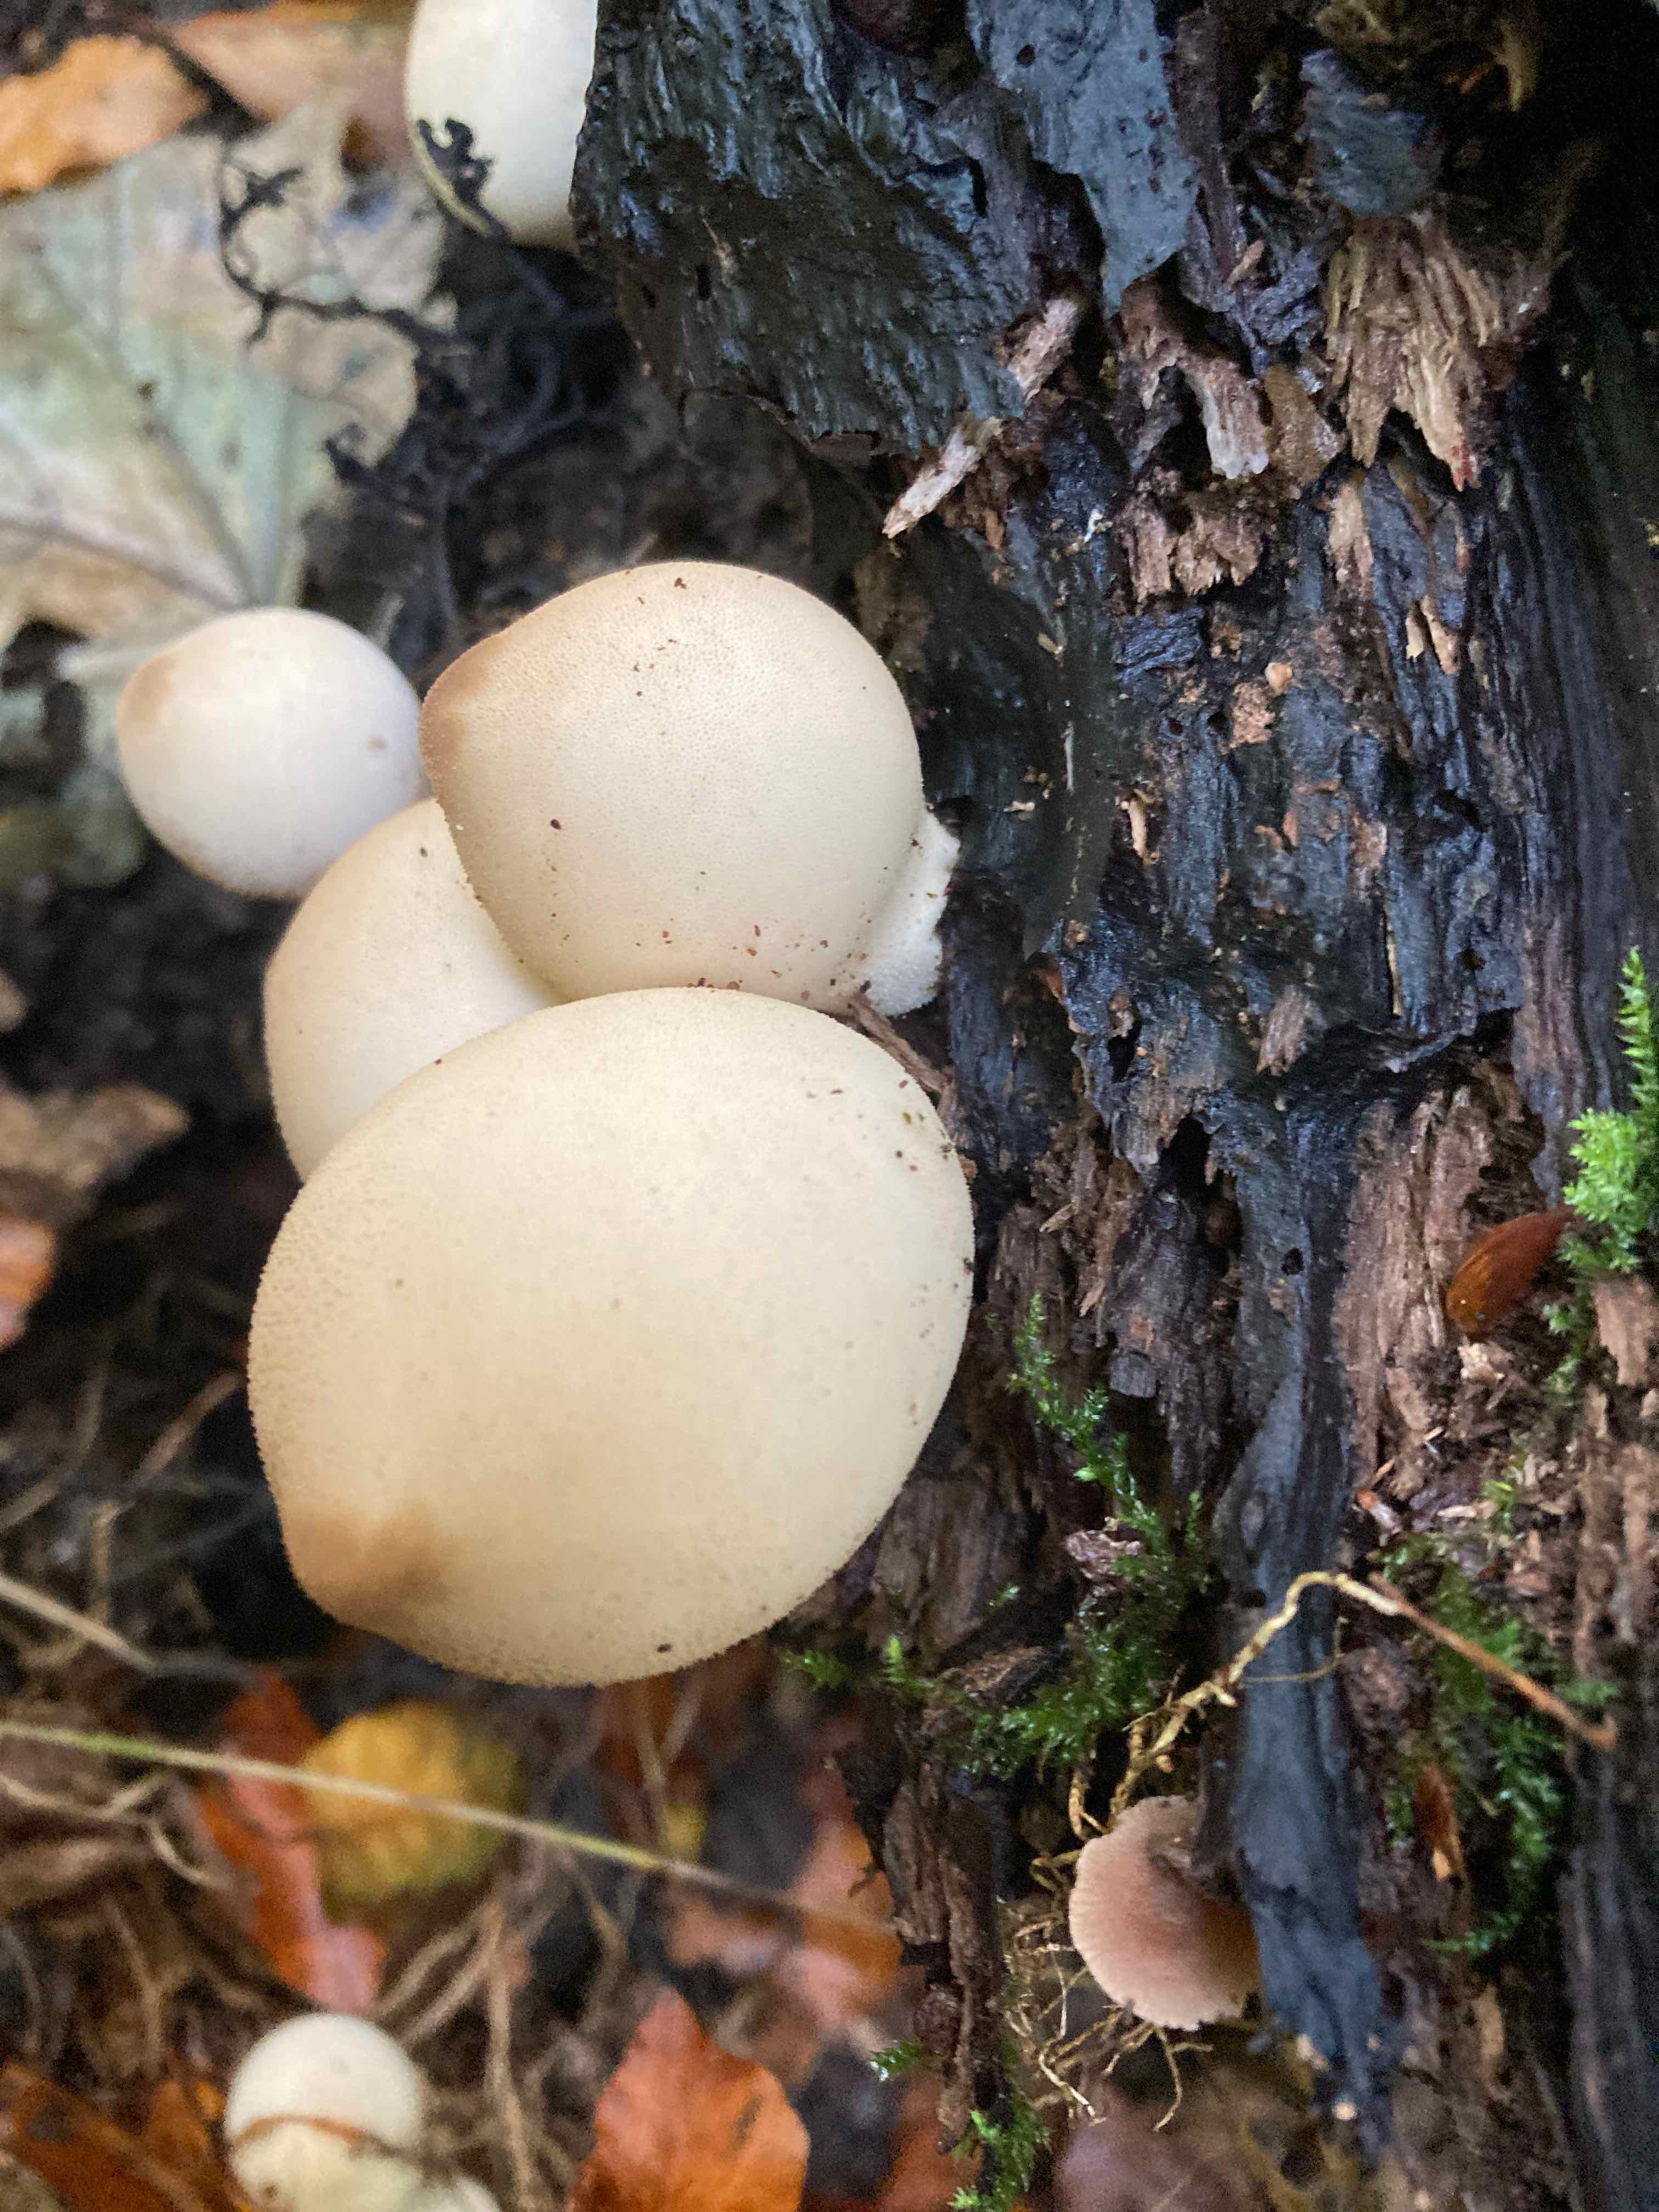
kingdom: Fungi
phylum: Basidiomycota
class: Agaricomycetes
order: Agaricales
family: Lycoperdaceae
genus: Apioperdon
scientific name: Apioperdon pyriforme
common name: pære-støvbold
